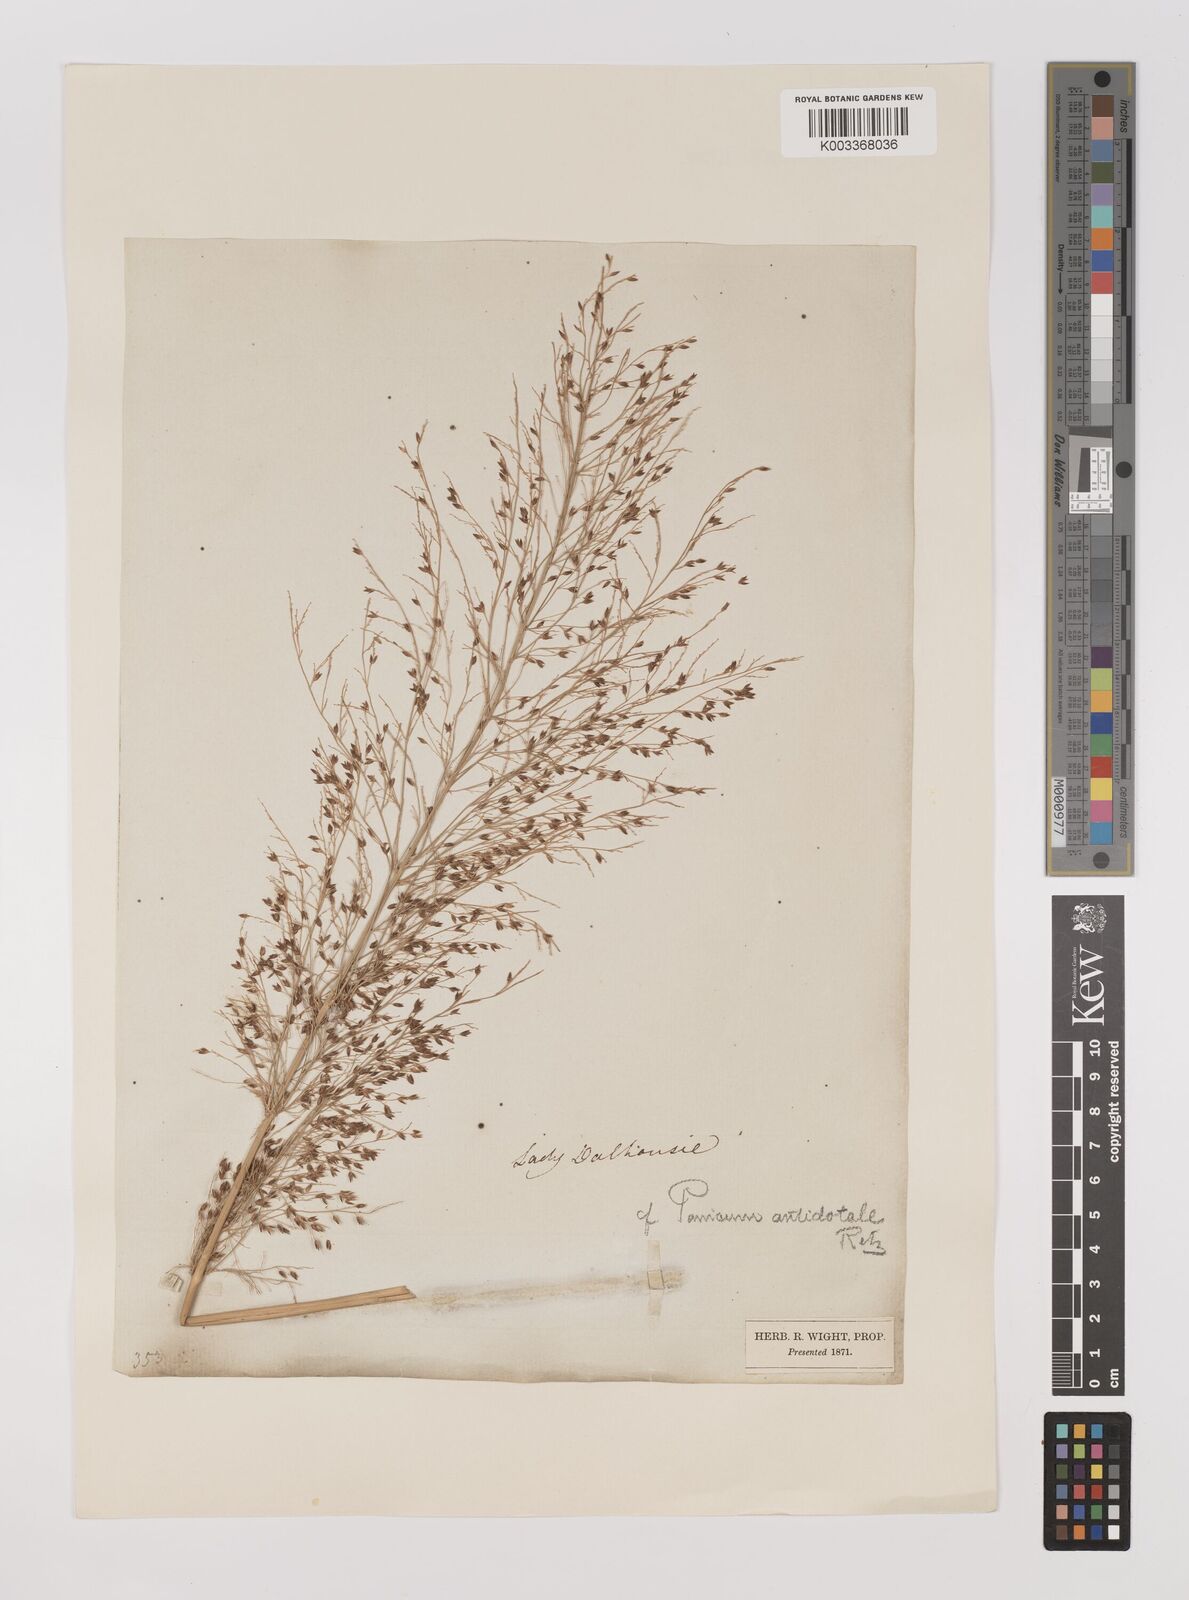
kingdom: Plantae
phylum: Tracheophyta
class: Liliopsida
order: Poales
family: Poaceae
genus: Panicum
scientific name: Panicum antidotale
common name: Blue panicum
